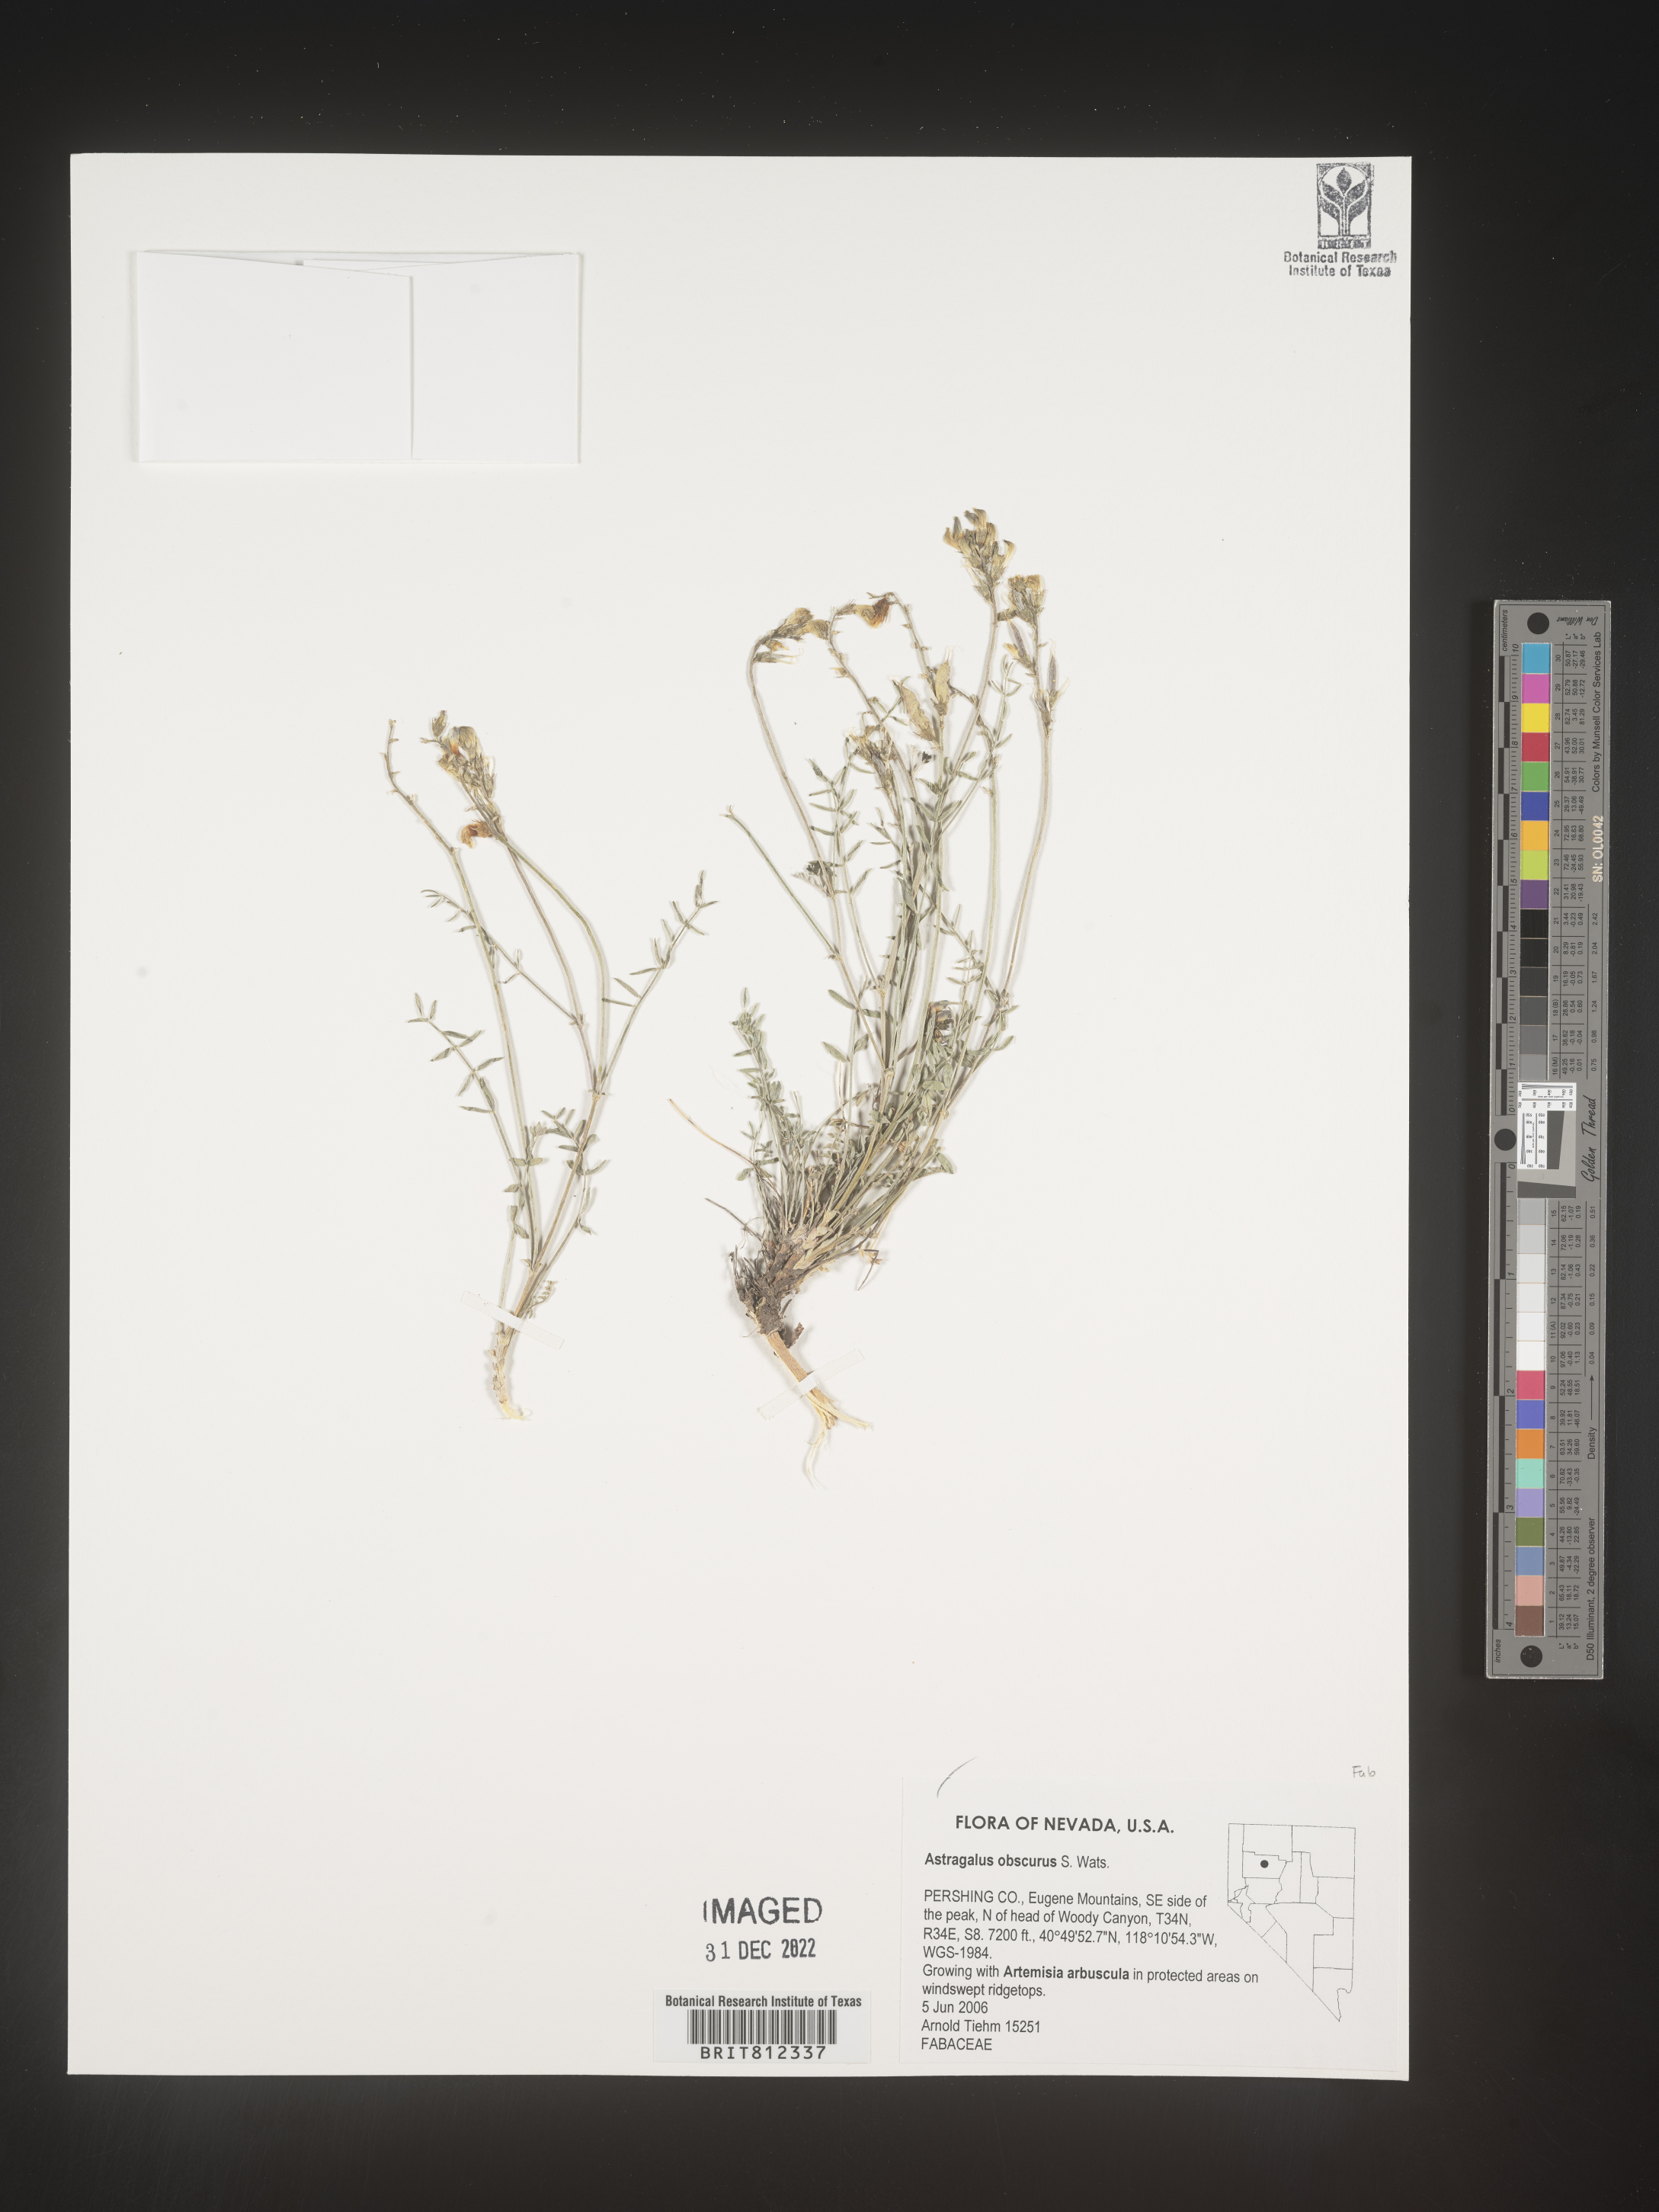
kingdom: Plantae
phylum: Tracheophyta
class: Magnoliopsida
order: Fabales
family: Fabaceae
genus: Astragalus
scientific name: Astragalus
